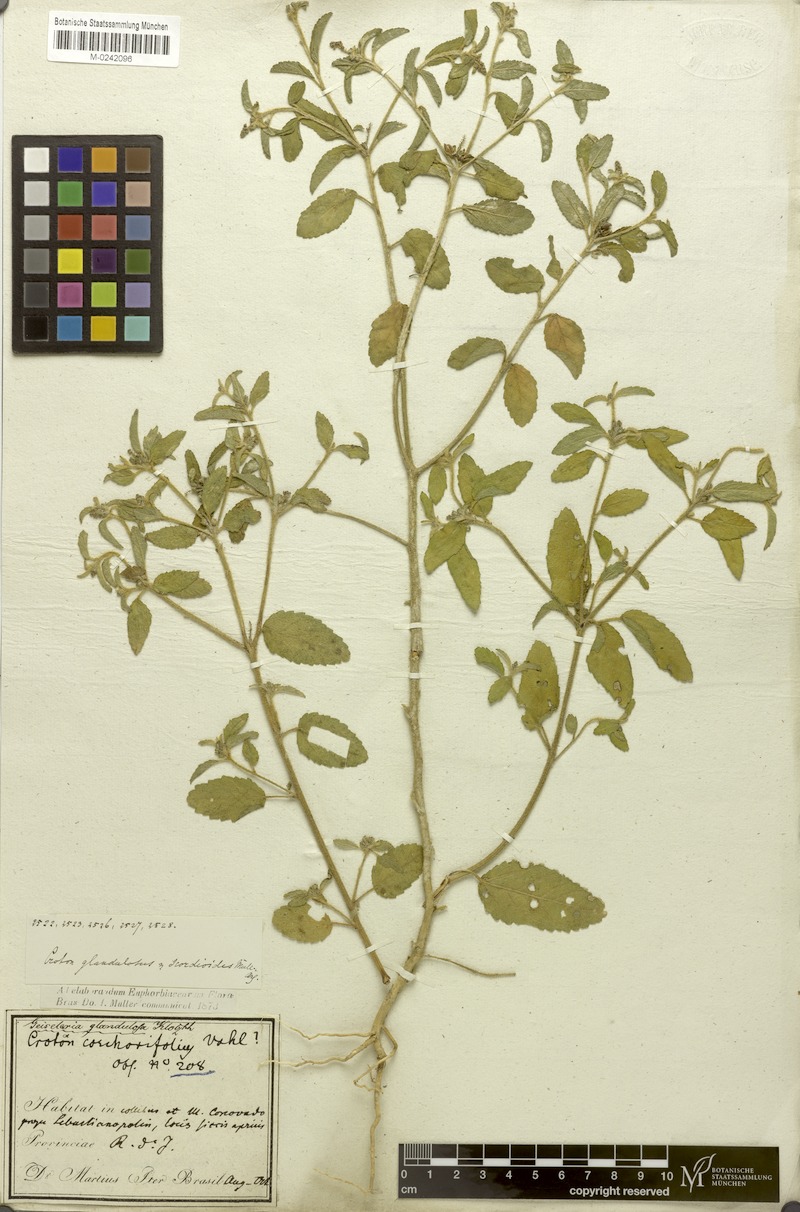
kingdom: Plantae
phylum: Tracheophyta
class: Magnoliopsida
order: Malpighiales
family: Euphorbiaceae
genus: Croton
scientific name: Croton glandulosus
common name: Tropic croton
